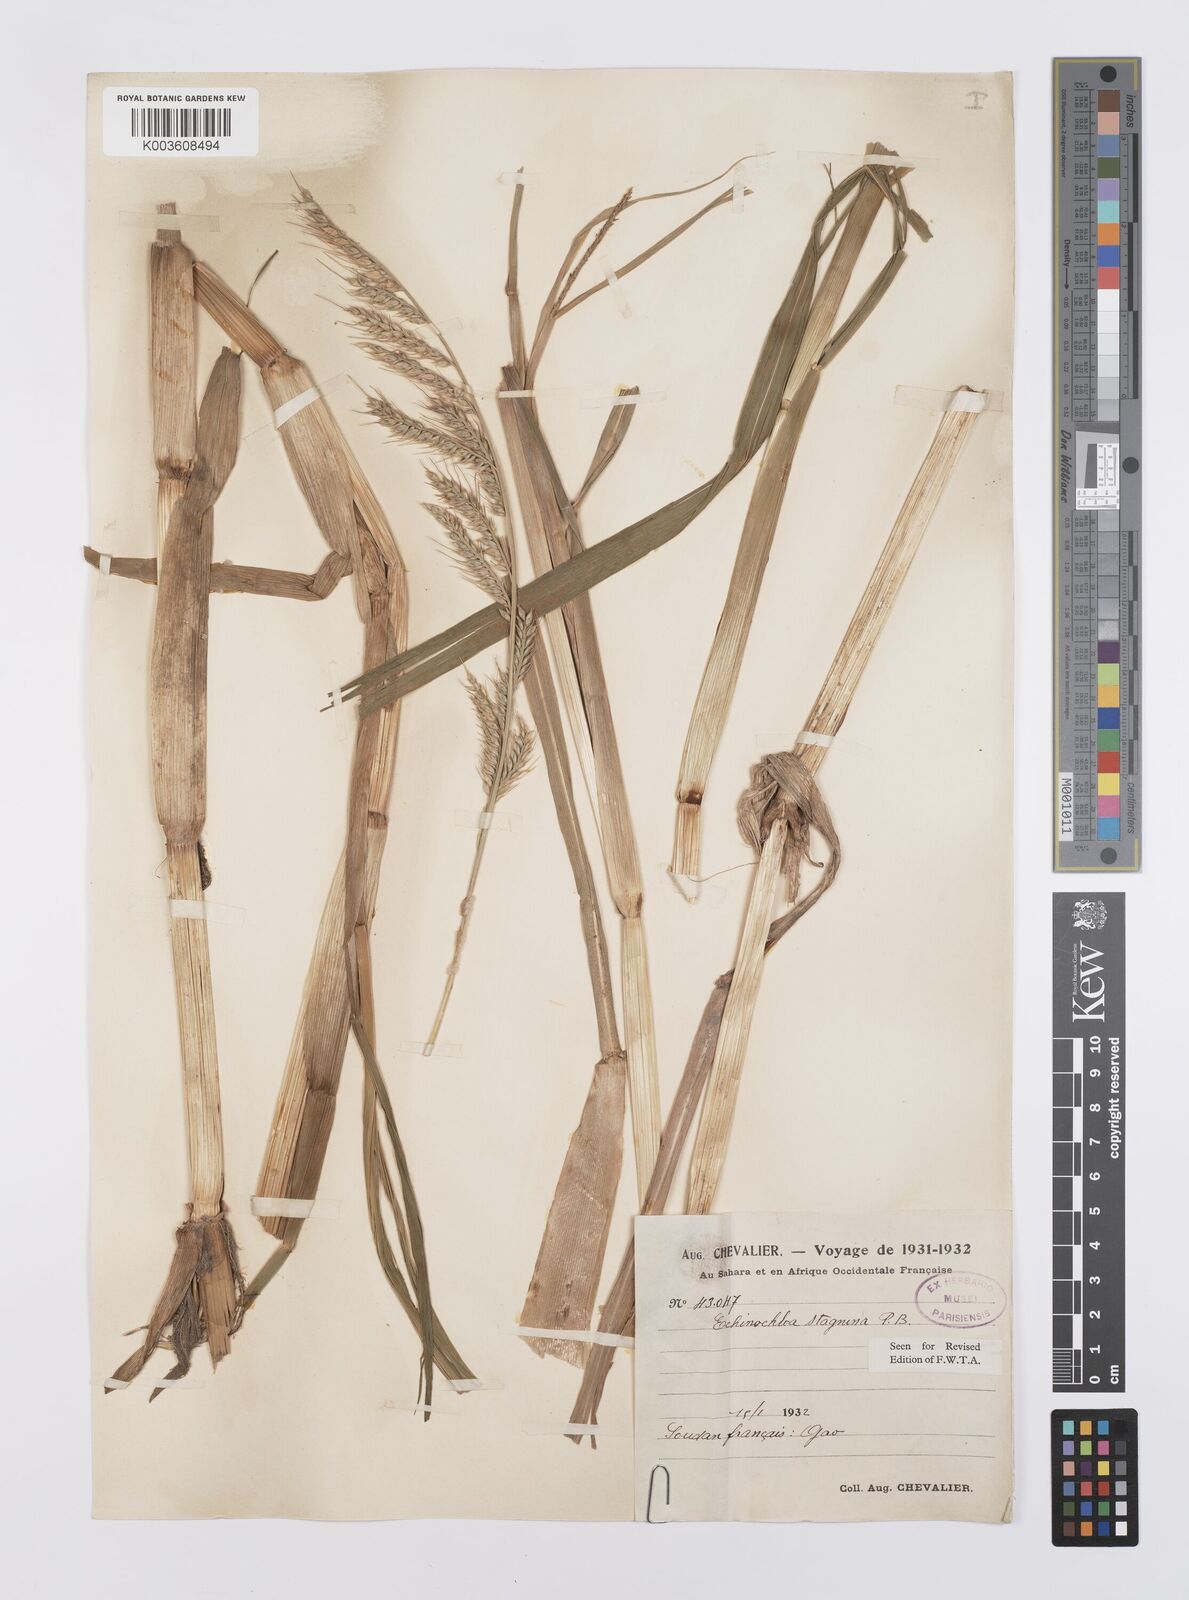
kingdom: Plantae
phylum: Tracheophyta
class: Liliopsida
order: Poales
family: Poaceae
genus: Echinochloa
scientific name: Echinochloa stagnina
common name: Burgu grass
